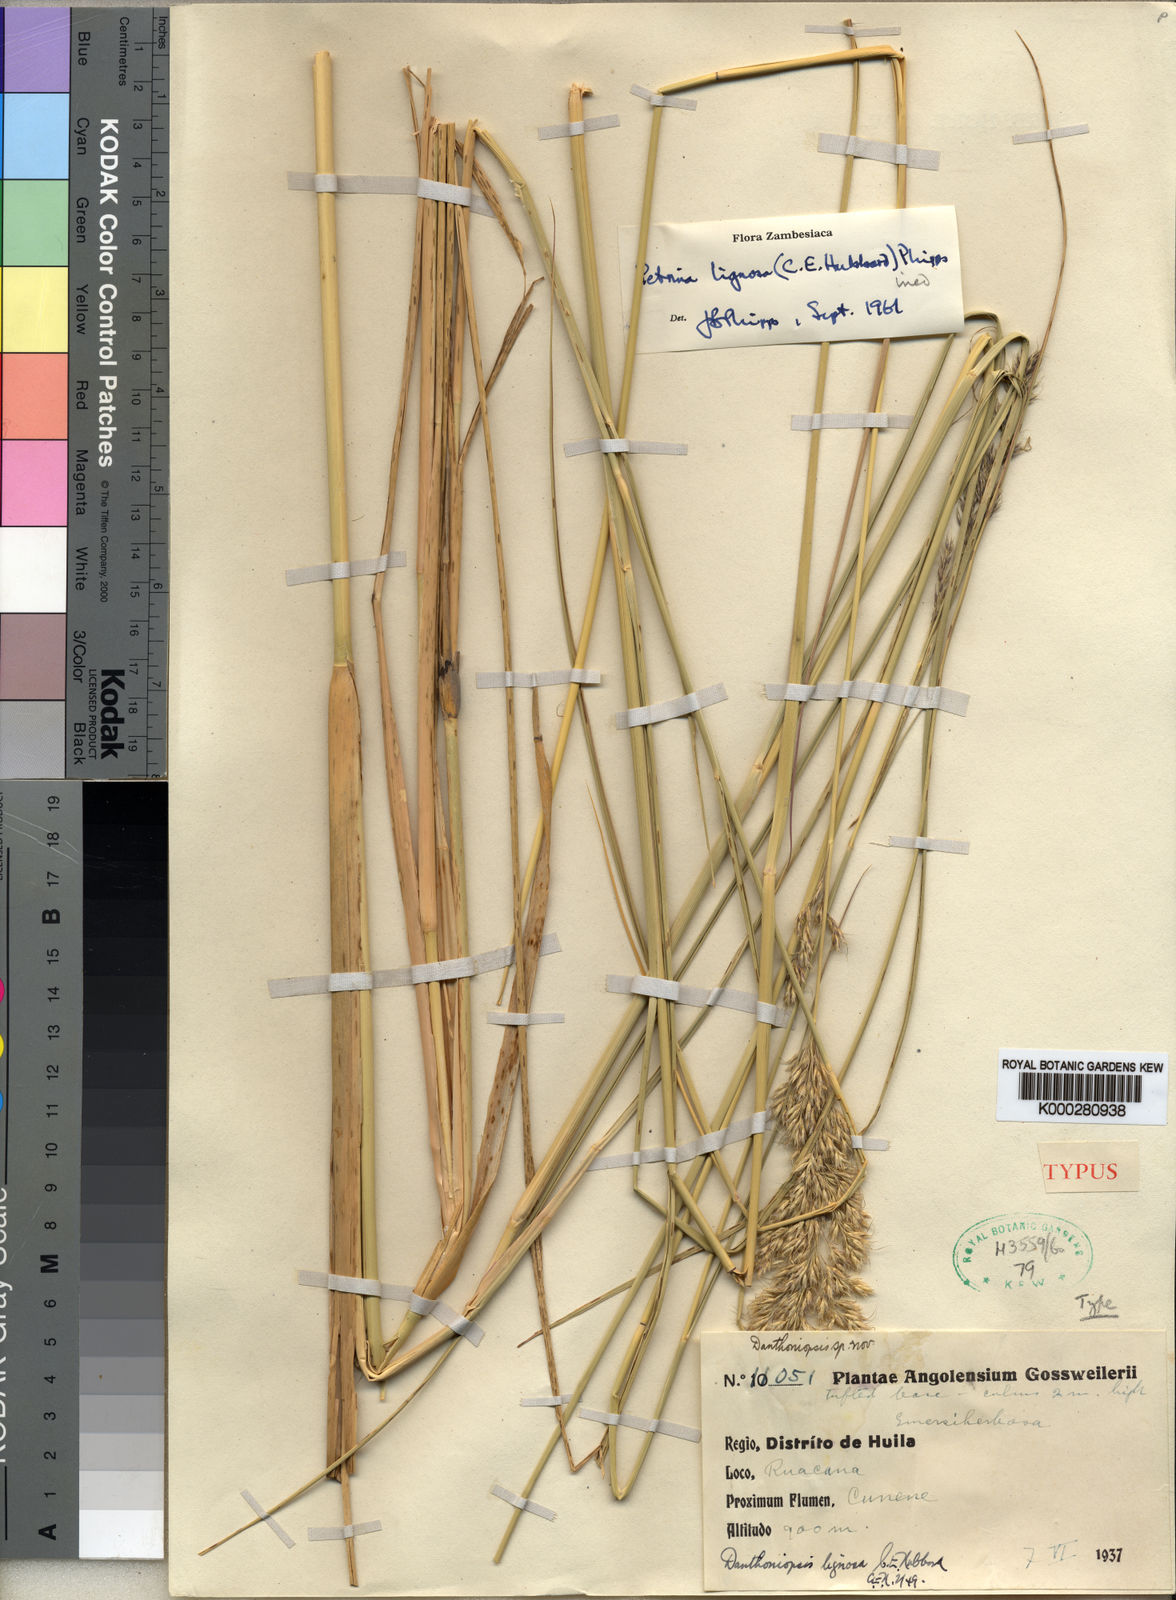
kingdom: Plantae
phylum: Tracheophyta
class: Liliopsida
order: Poales
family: Poaceae
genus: Danthoniopsis
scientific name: Danthoniopsis lignosa
